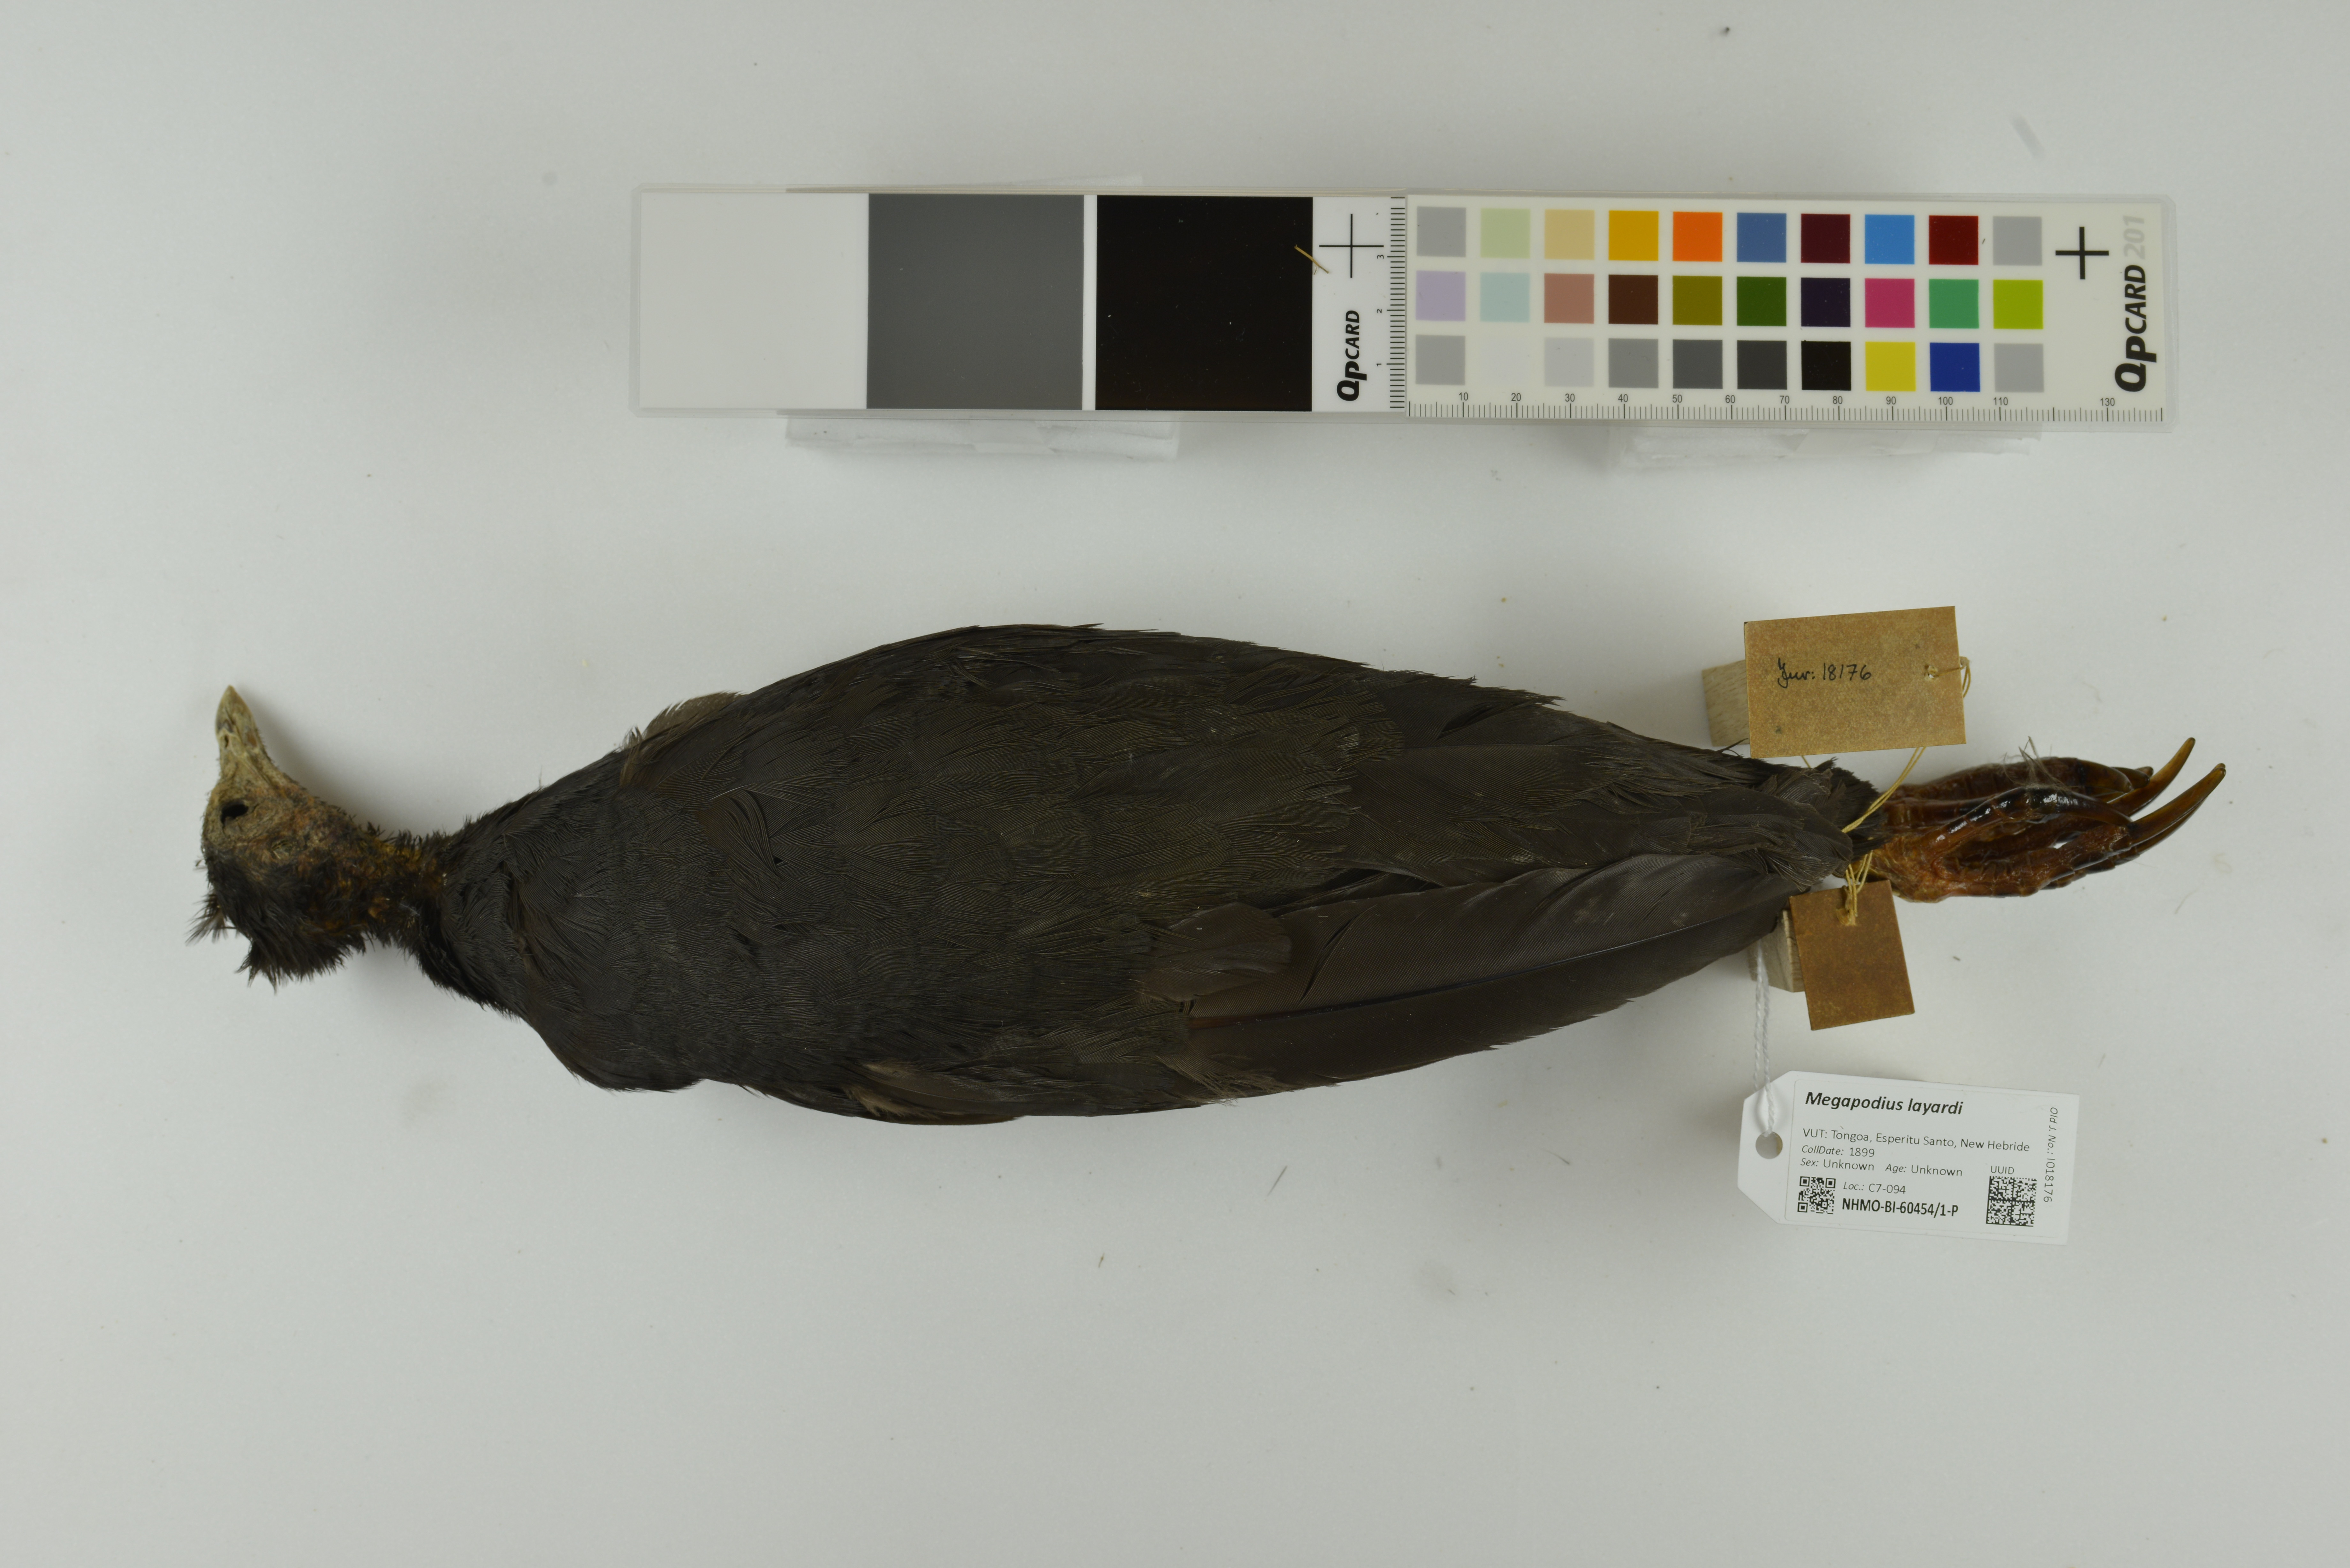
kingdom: Animalia
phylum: Chordata
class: Aves
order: Galliformes
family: Megapodiidae
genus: Megapodius
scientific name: Megapodius layardi
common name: Vanuatu megapode
